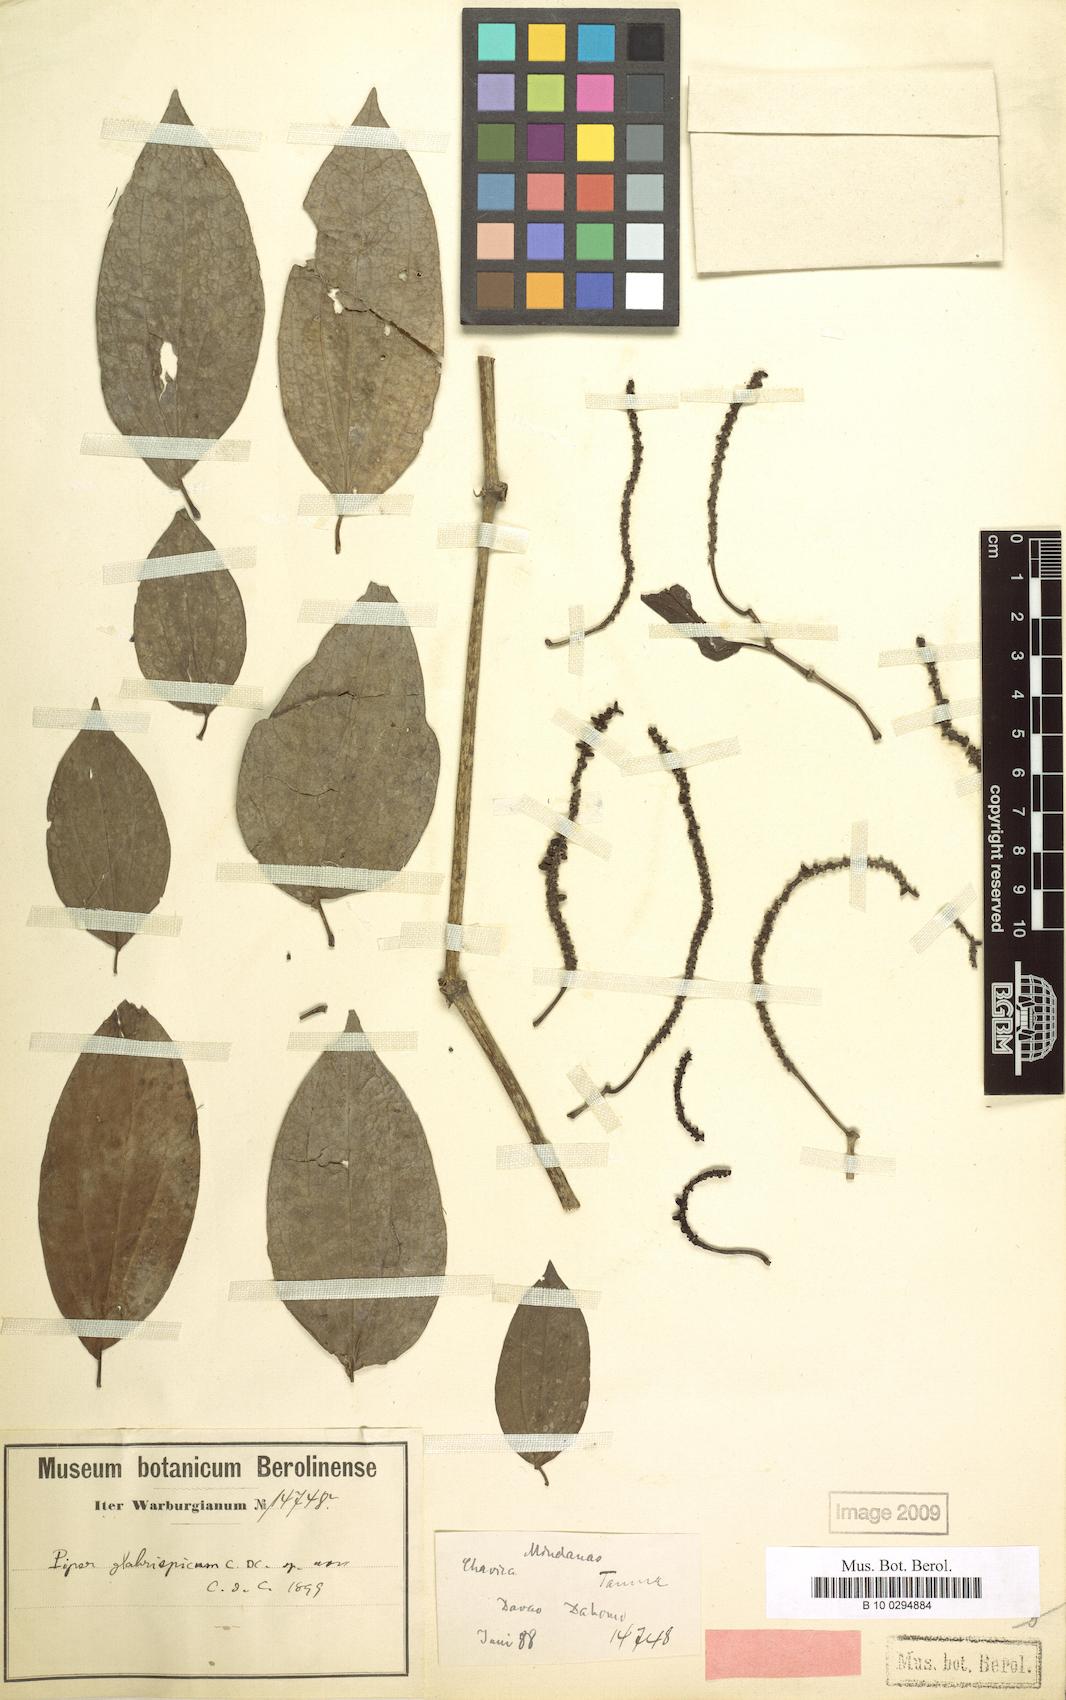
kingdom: Plantae
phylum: Tracheophyta
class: Magnoliopsida
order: Piperales
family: Piperaceae
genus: Piper
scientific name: Piper nigrum
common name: Black pepper
